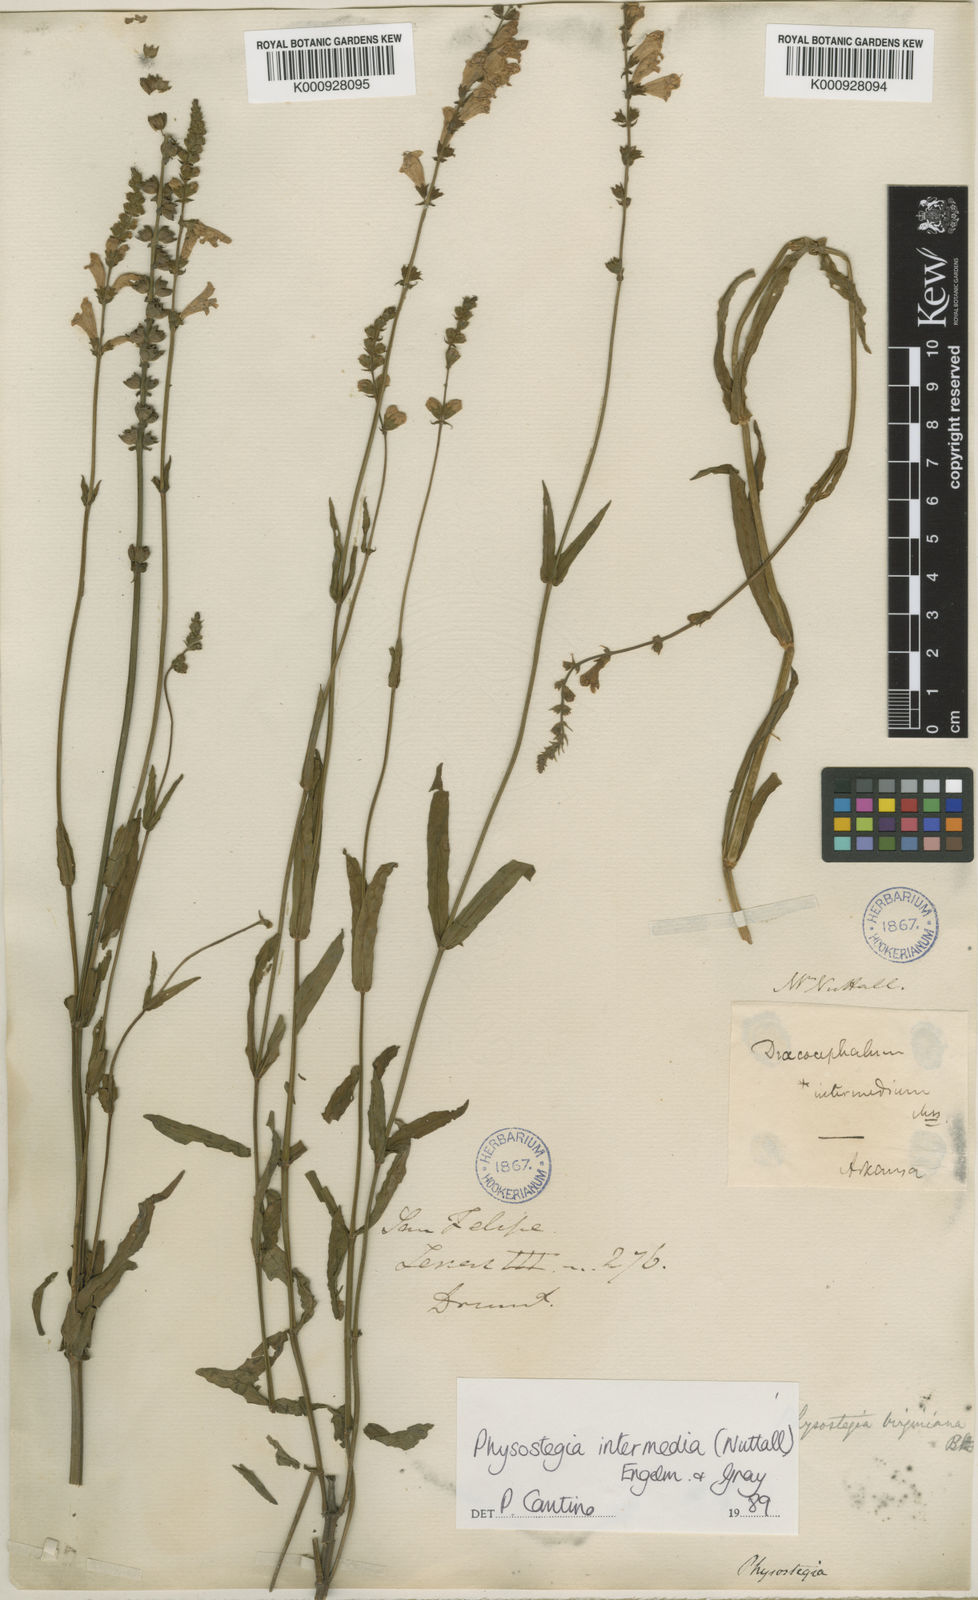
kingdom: Plantae
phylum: Tracheophyta
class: Magnoliopsida
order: Lamiales
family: Lamiaceae
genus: Physostegia
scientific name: Physostegia intermedia
